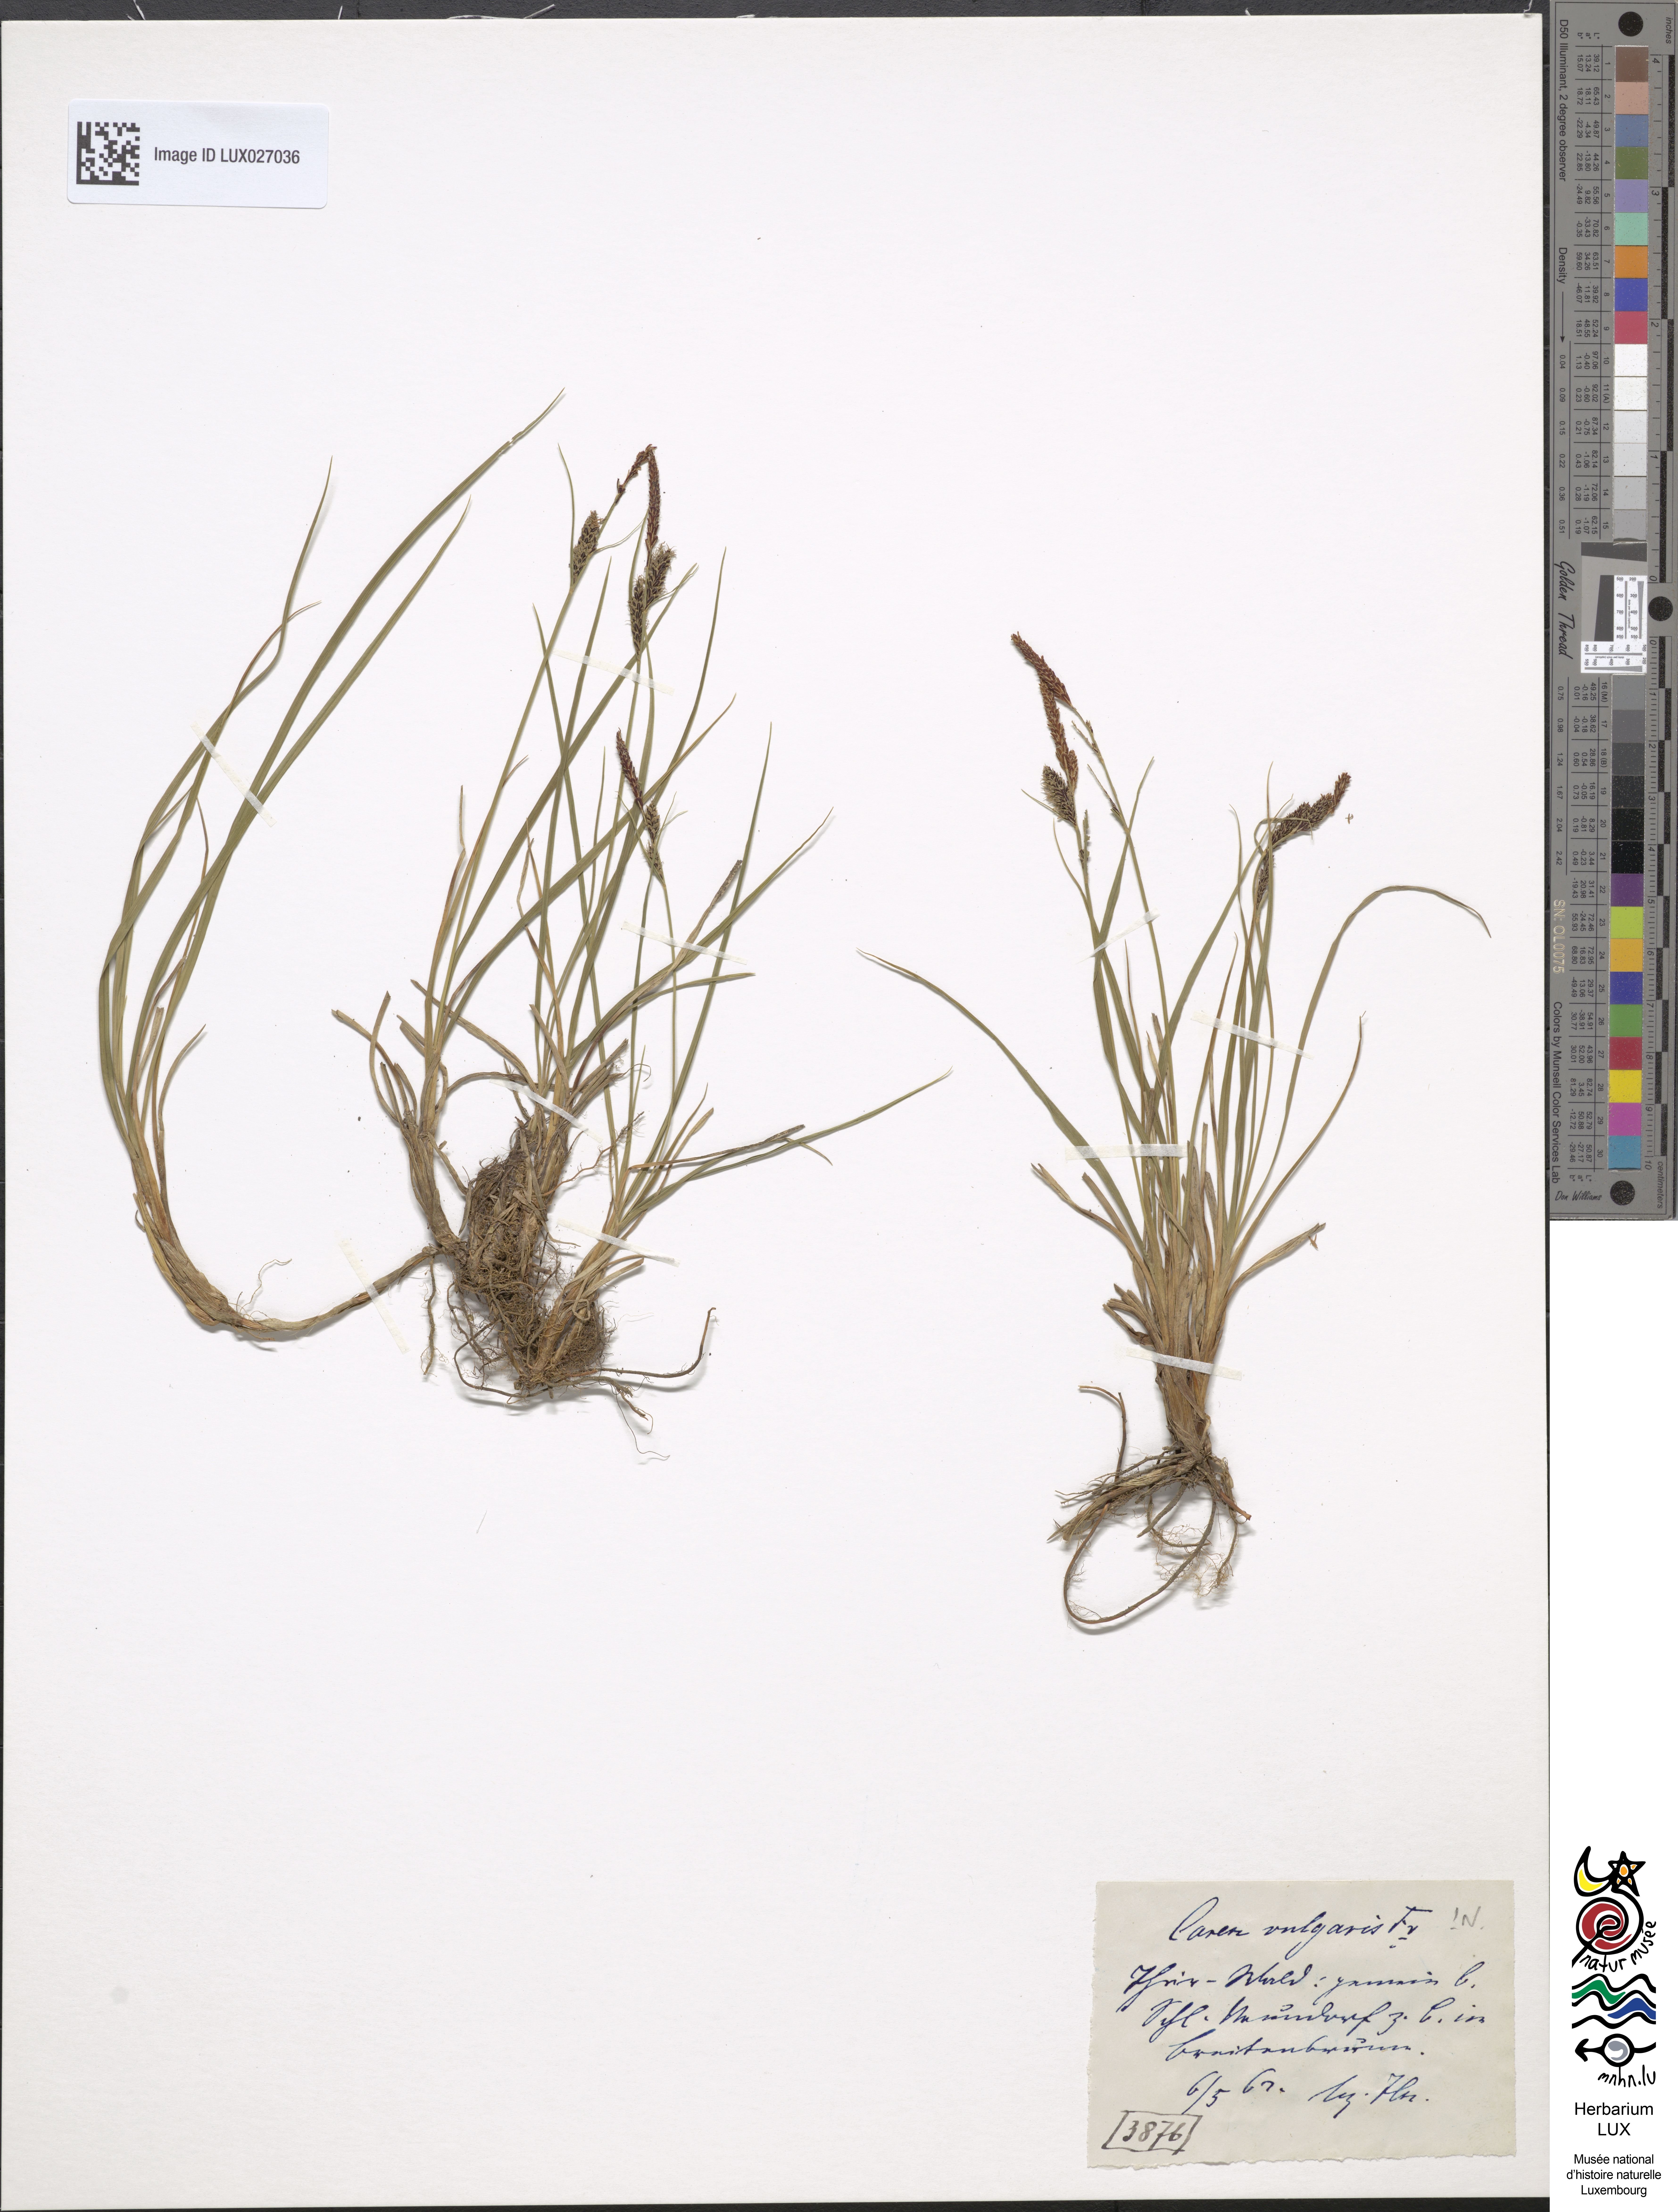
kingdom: Plantae
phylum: Tracheophyta
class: Liliopsida
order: Poales
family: Cyperaceae
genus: Carex
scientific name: Carex nigra
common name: Common sedge
